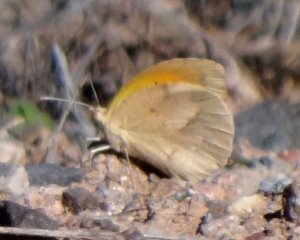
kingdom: Animalia
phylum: Arthropoda
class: Insecta
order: Lepidoptera
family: Pieridae
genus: Abaeis
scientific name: Abaeis nicippe
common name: Sleepy Orange
